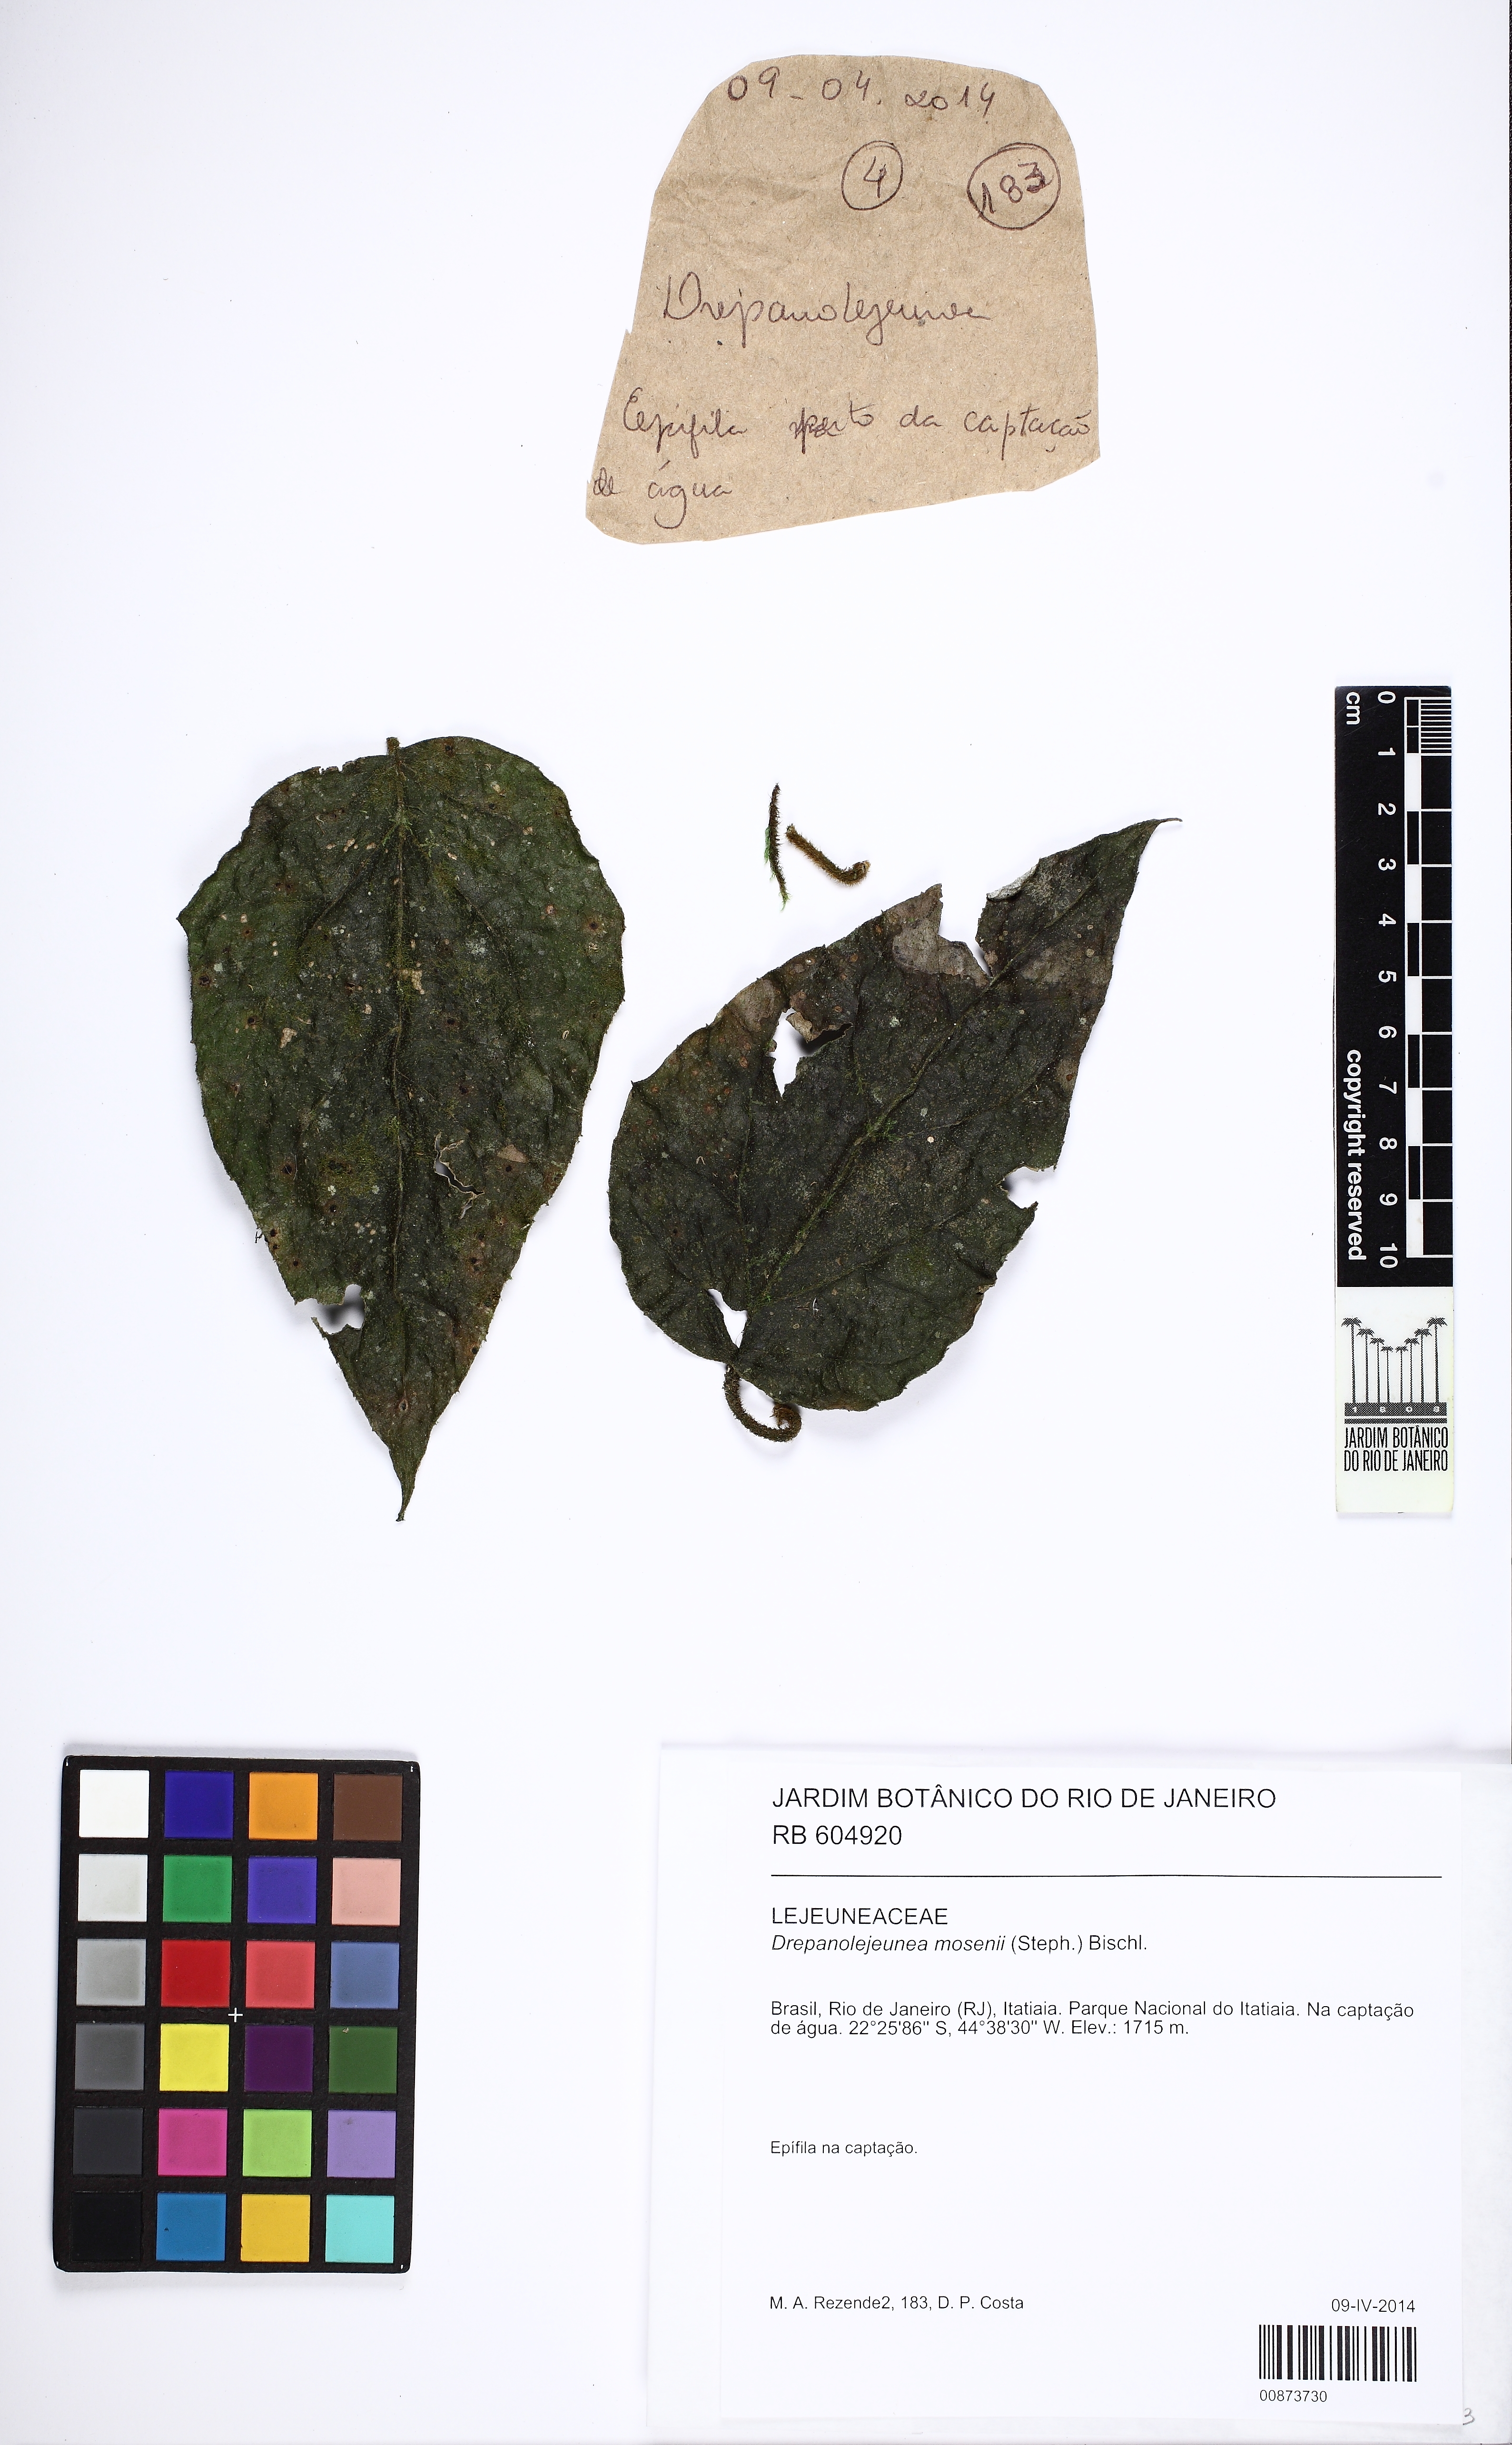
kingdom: Plantae
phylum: Marchantiophyta
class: Jungermanniopsida
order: Porellales
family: Lejeuneaceae
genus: Drepanolejeunea
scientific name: Drepanolejeunea mosenii
